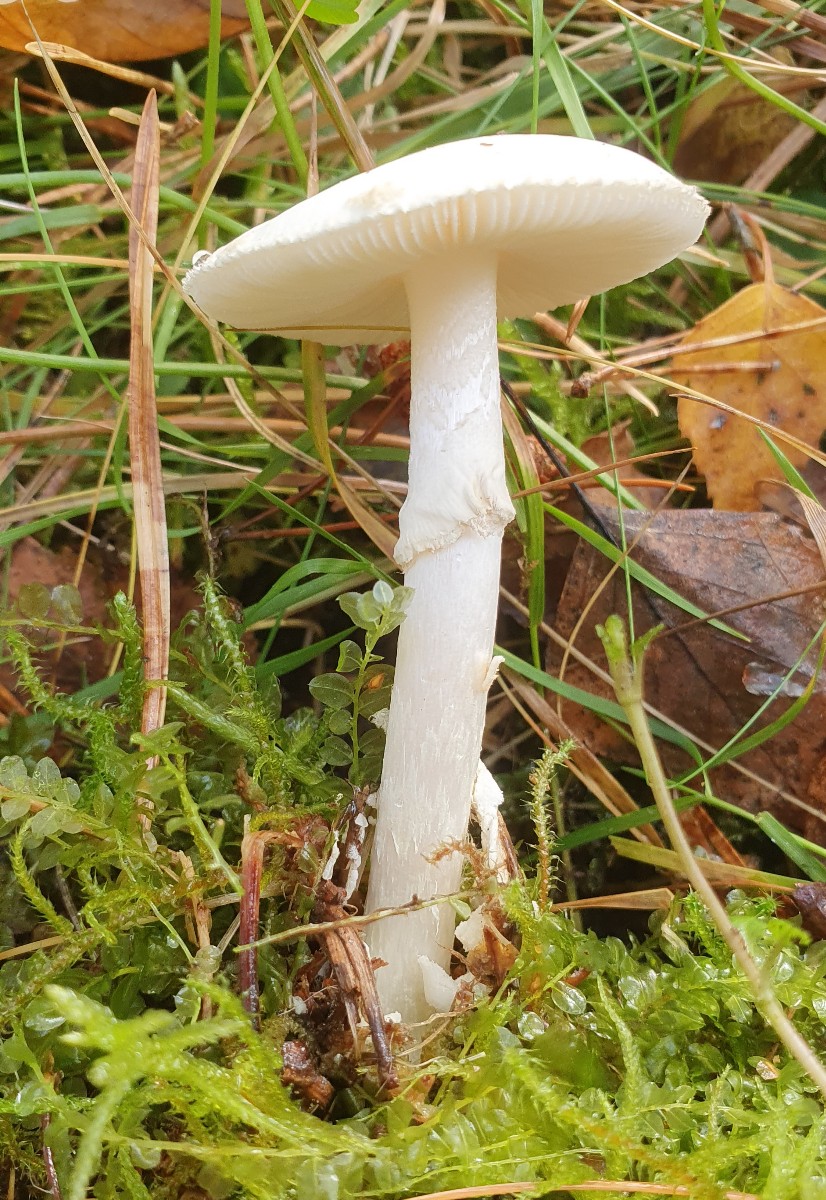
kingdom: Fungi
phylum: Basidiomycota
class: Agaricomycetes
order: Agaricales
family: Amanitaceae
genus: Amanita
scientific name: Amanita citrina
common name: False death-cap
